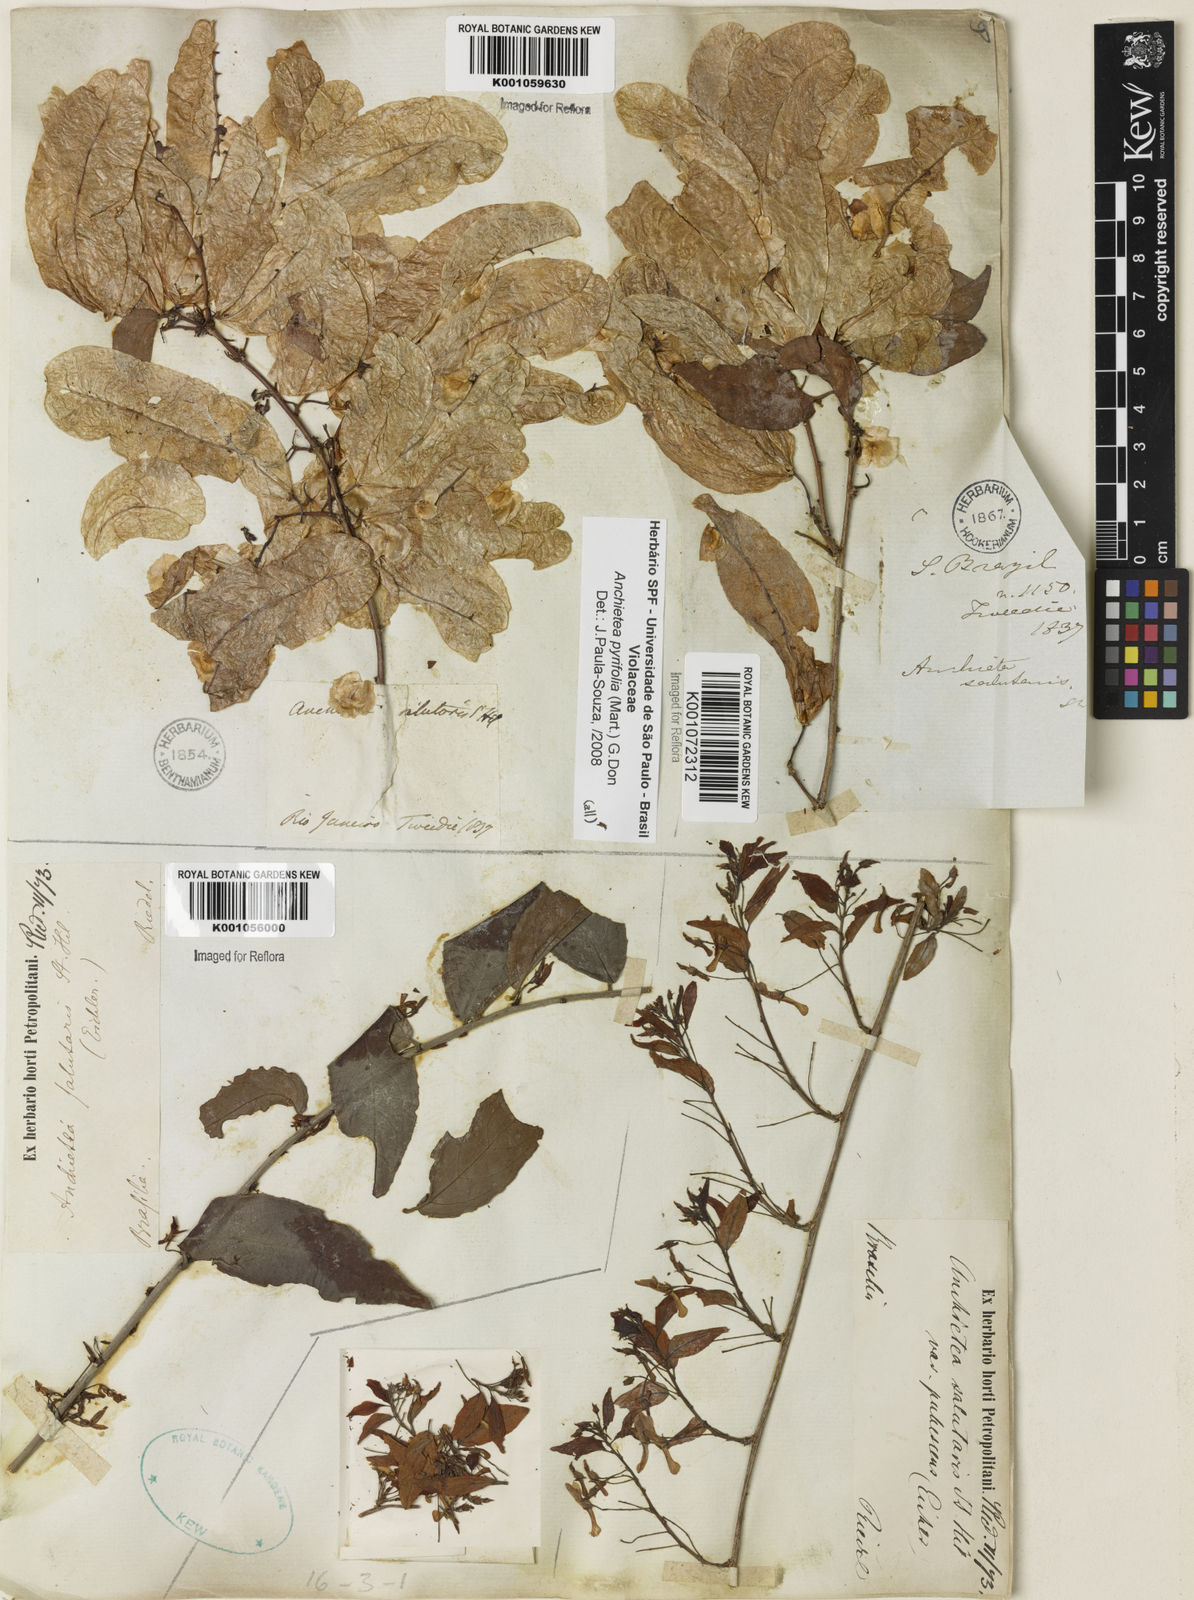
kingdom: Plantae
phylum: Tracheophyta
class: Magnoliopsida
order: Malpighiales
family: Violaceae
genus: Anchietea
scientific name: Anchietea pyrifolia
